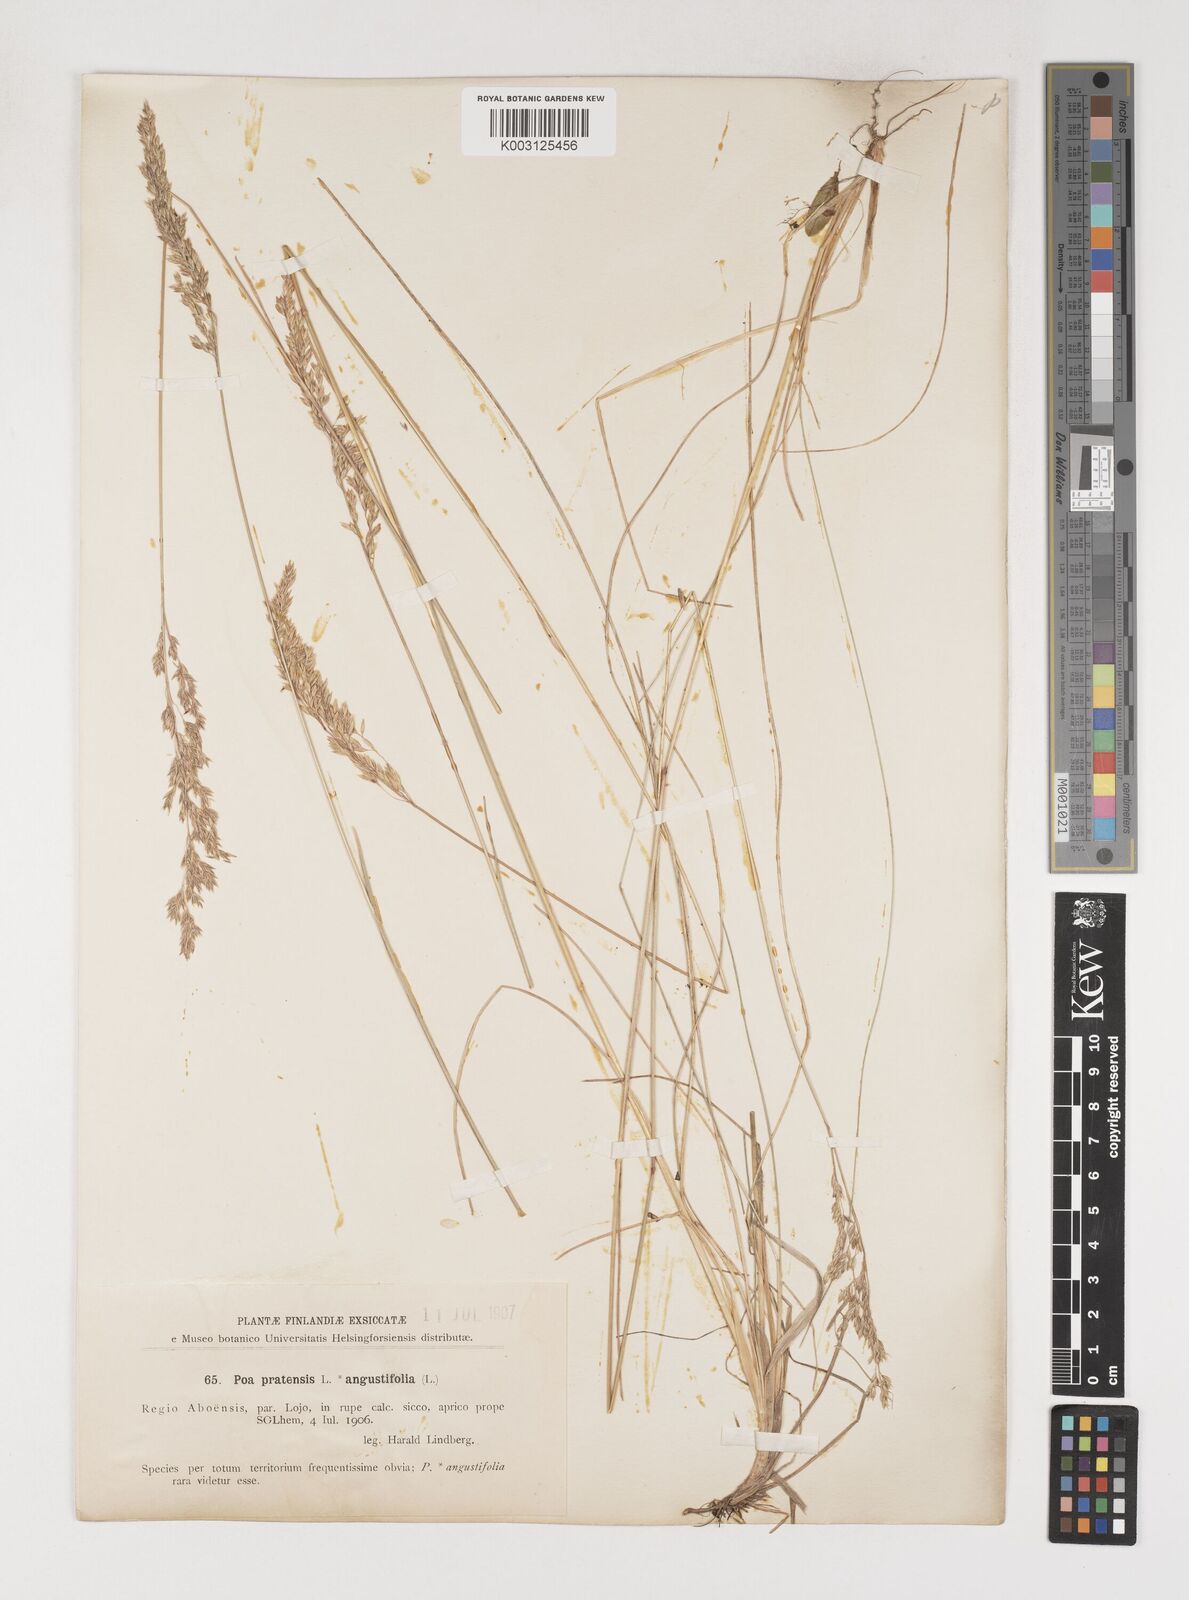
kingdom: Plantae
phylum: Tracheophyta
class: Liliopsida
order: Poales
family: Poaceae
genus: Poa
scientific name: Poa angustifolia
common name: Narrow-leaved meadow-grass
